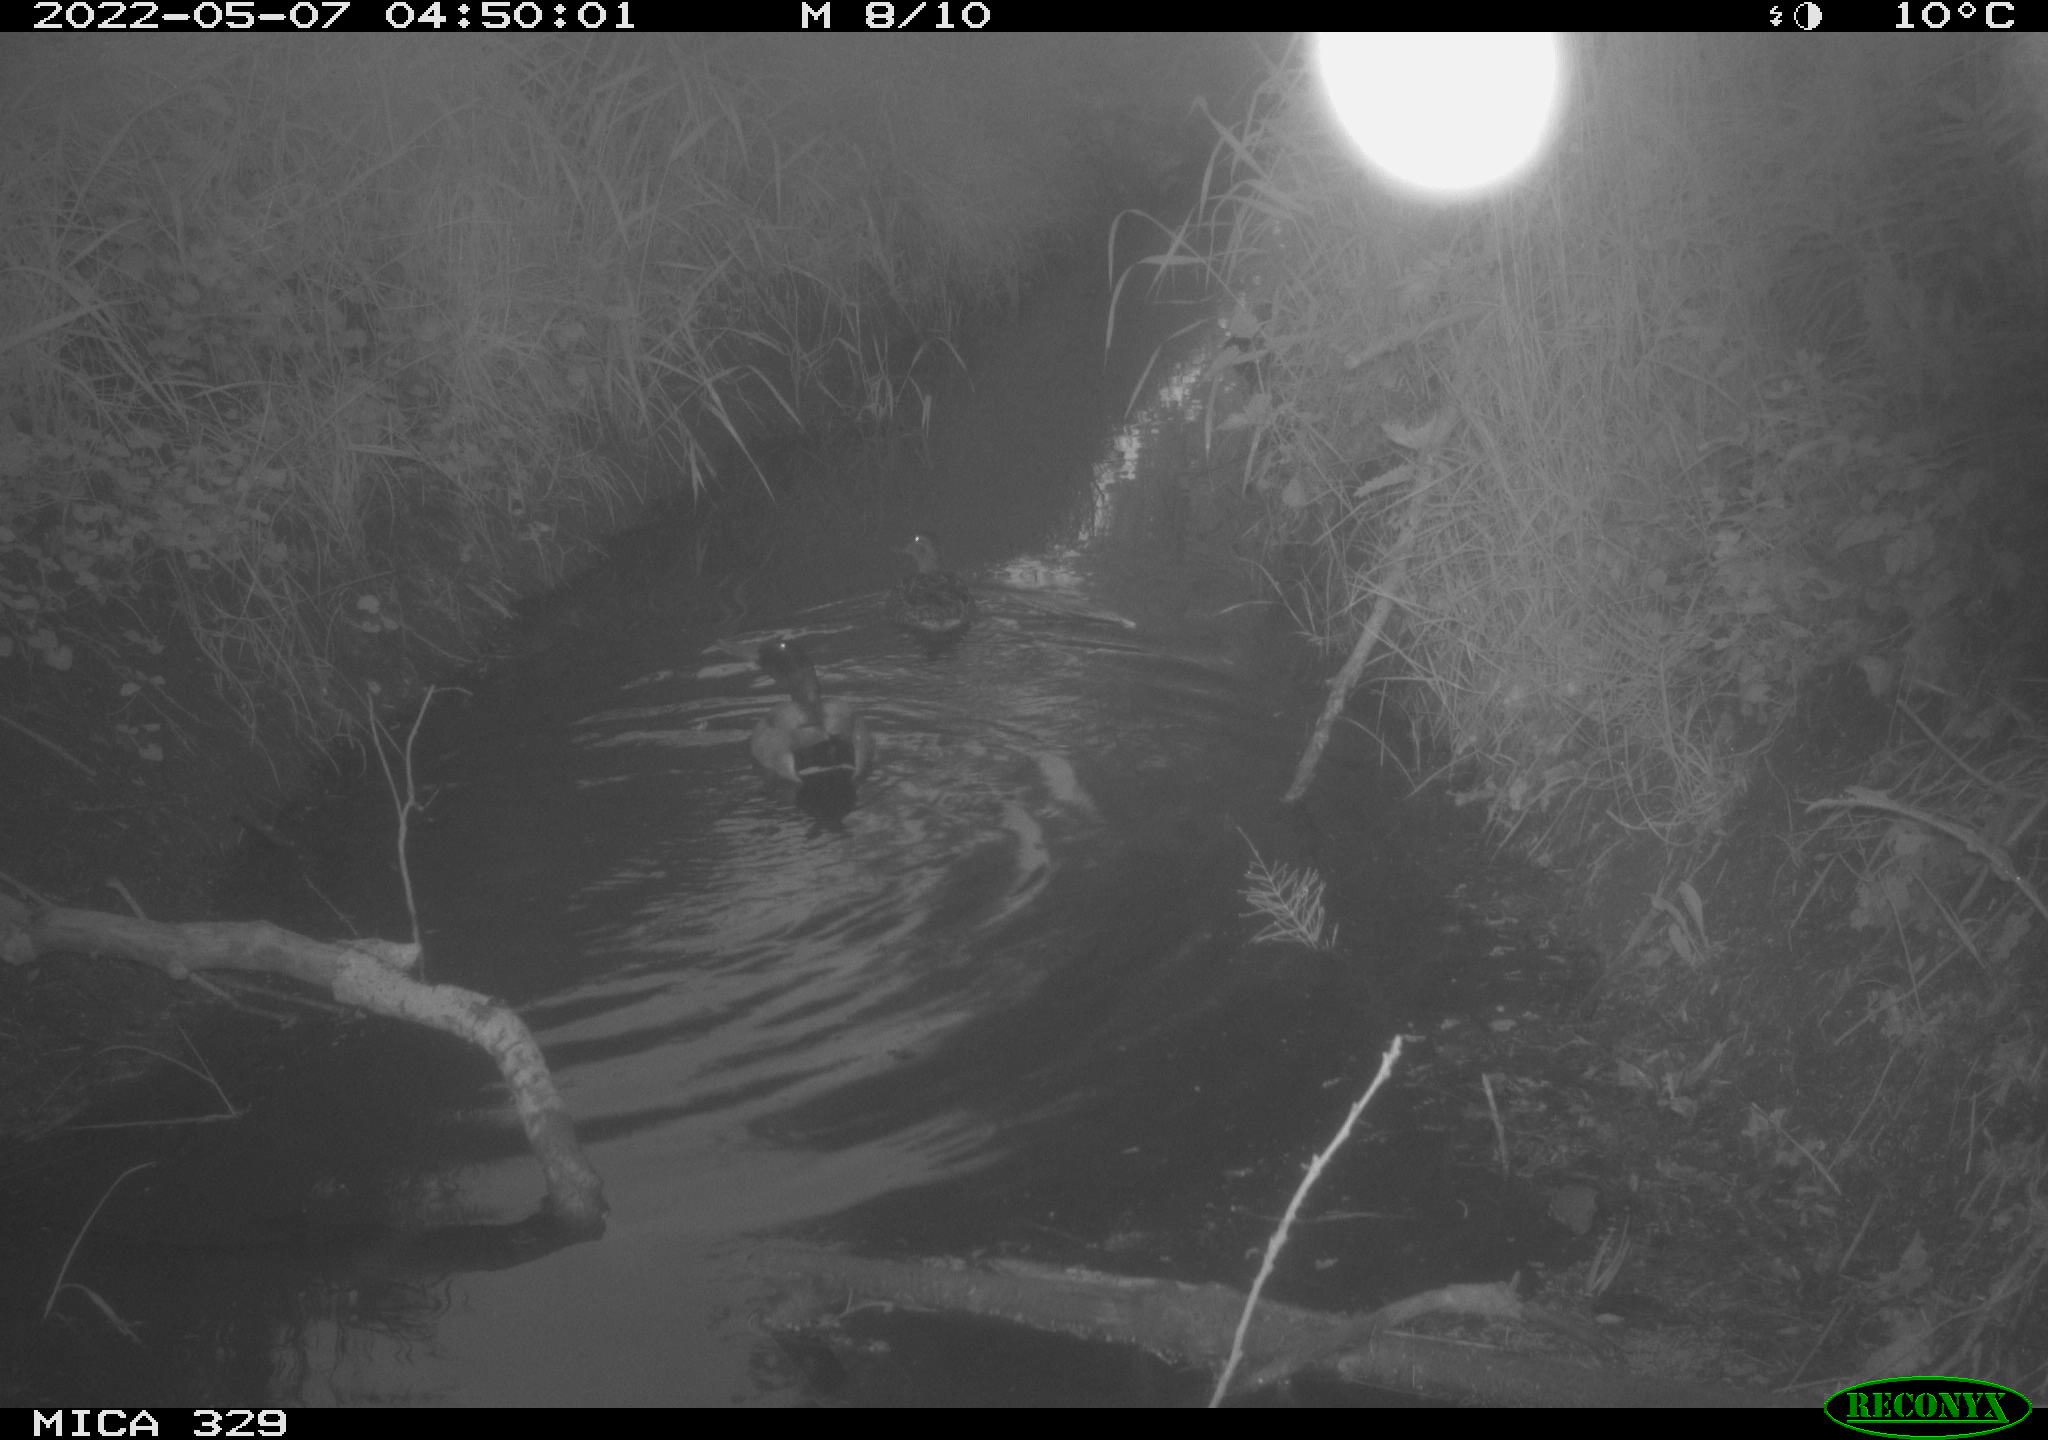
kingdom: Animalia
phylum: Chordata
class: Aves
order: Anseriformes
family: Anatidae
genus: Anas
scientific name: Anas platyrhynchos
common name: Mallard
